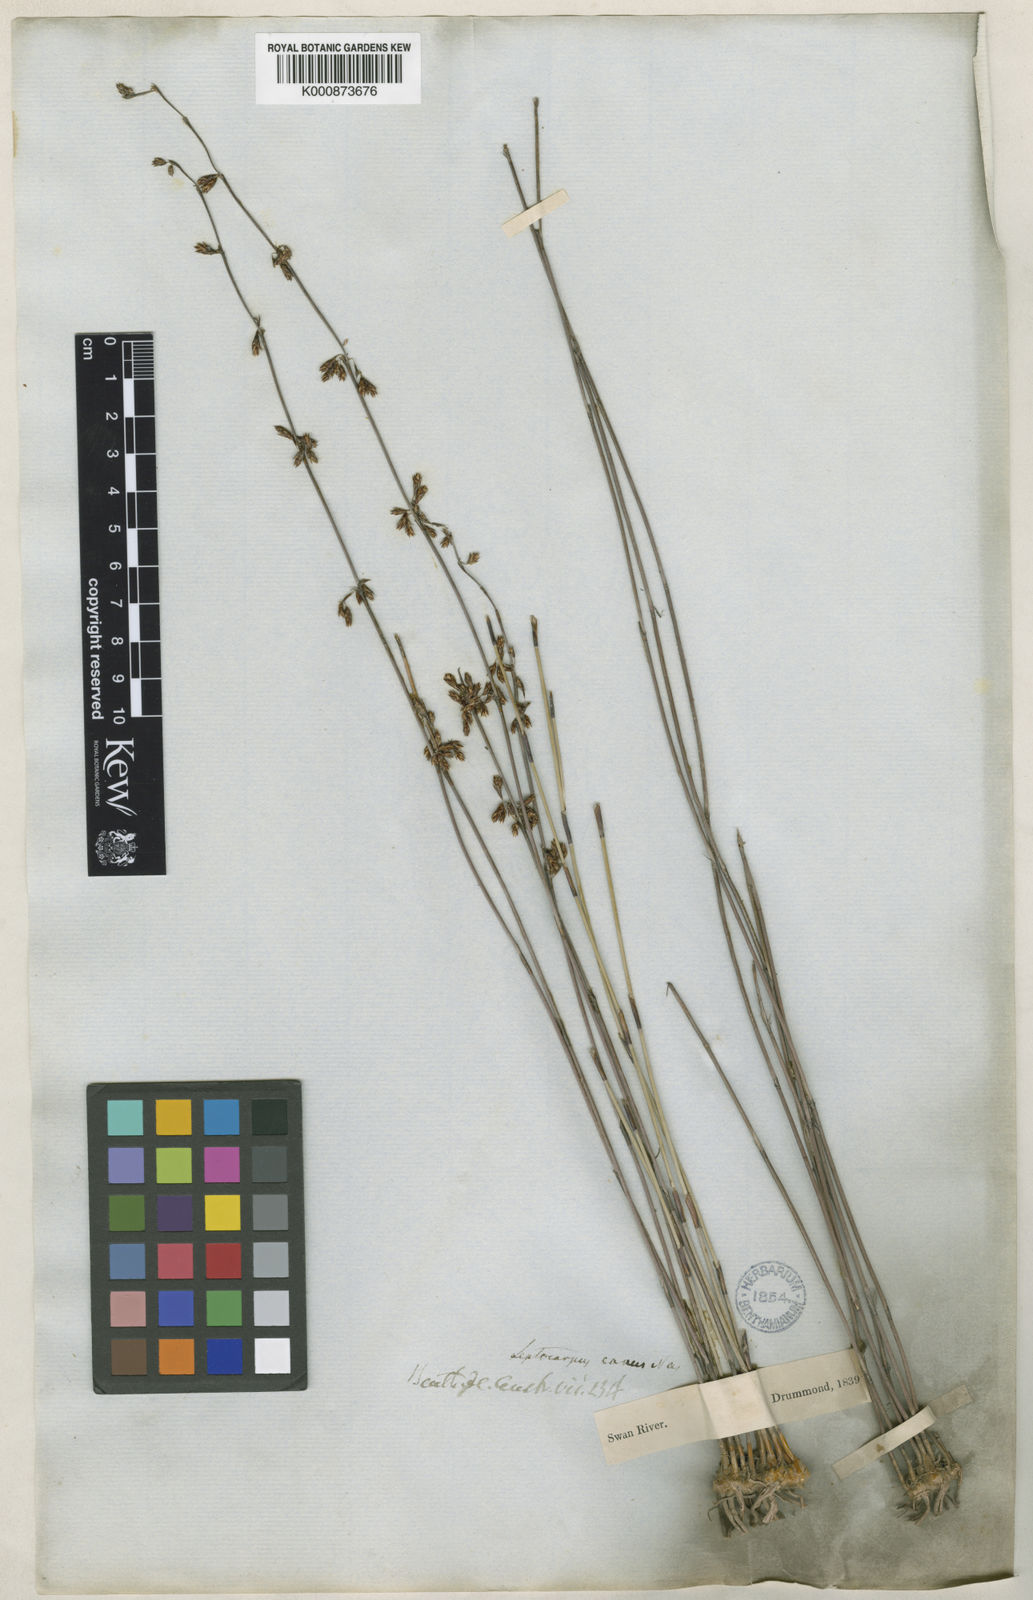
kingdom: Plantae
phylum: Tracheophyta
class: Liliopsida
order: Poales
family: Restionaceae
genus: Leptocarpus
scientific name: Leptocarpus canus
